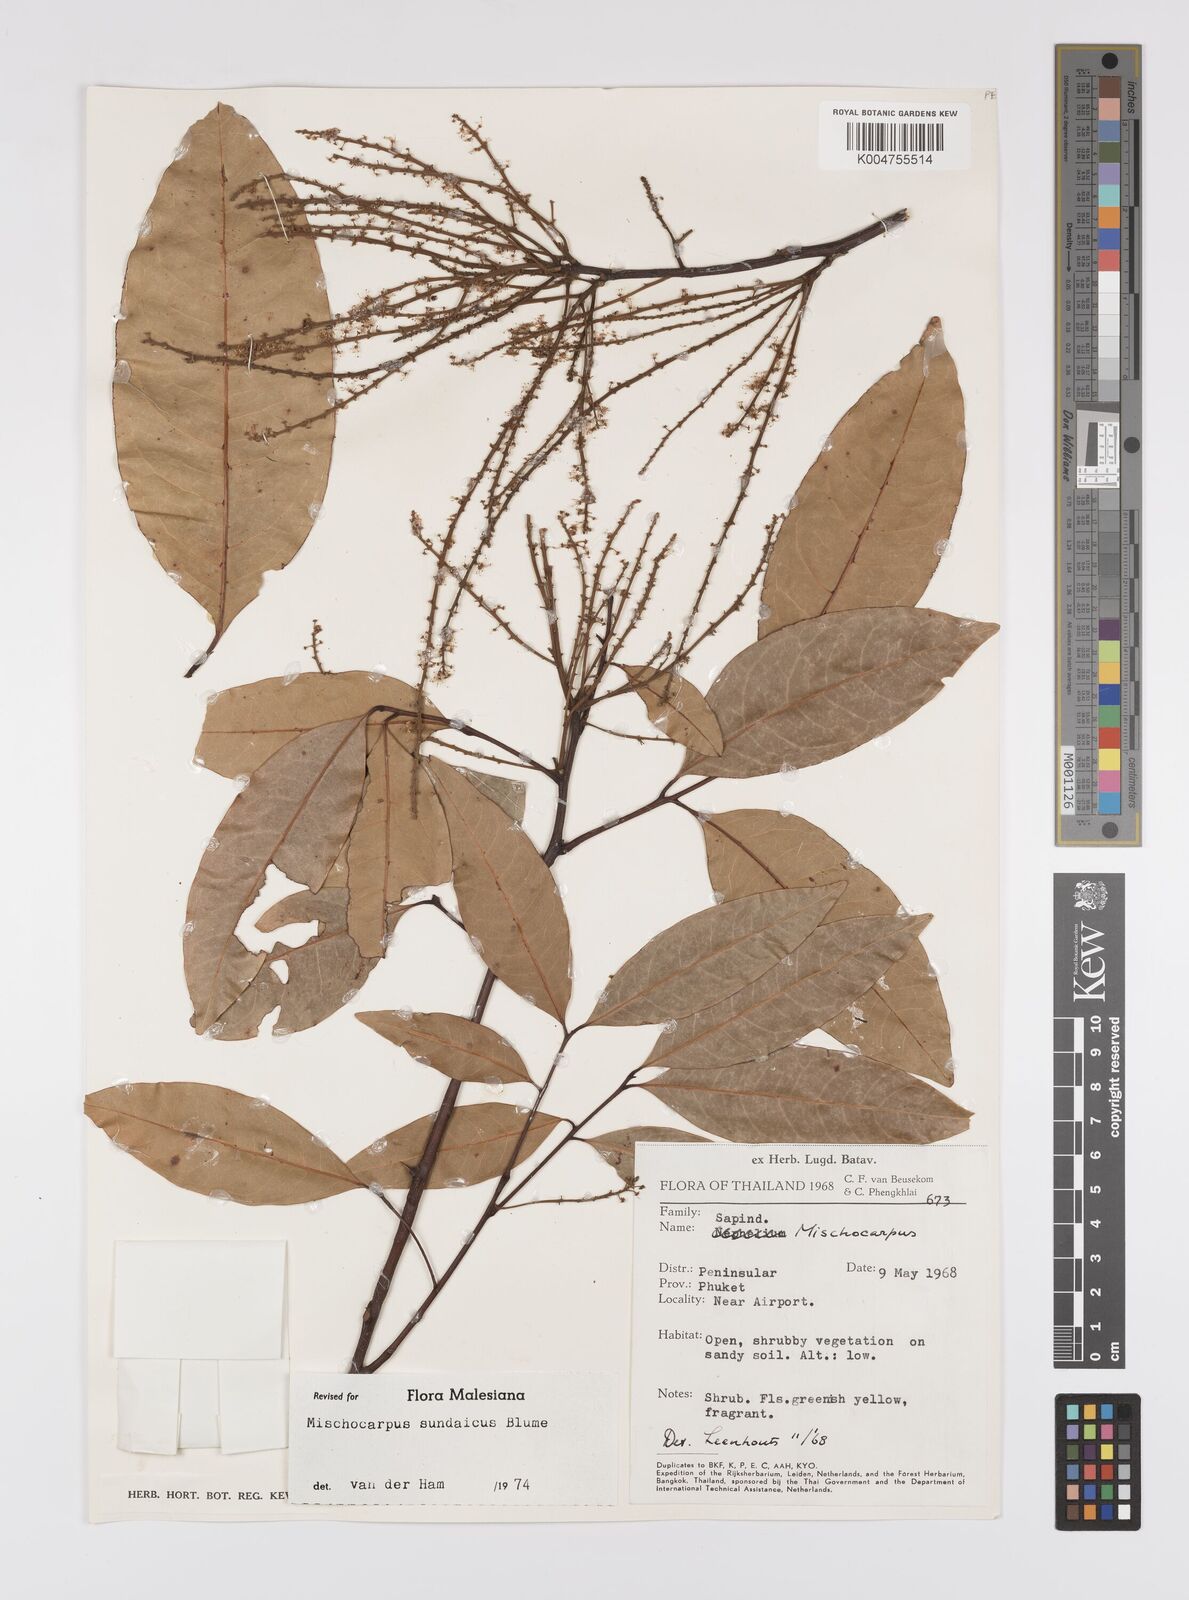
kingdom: Plantae
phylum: Tracheophyta
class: Magnoliopsida
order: Sapindales
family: Sapindaceae
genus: Mischocarpus
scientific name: Mischocarpus sundaicus
